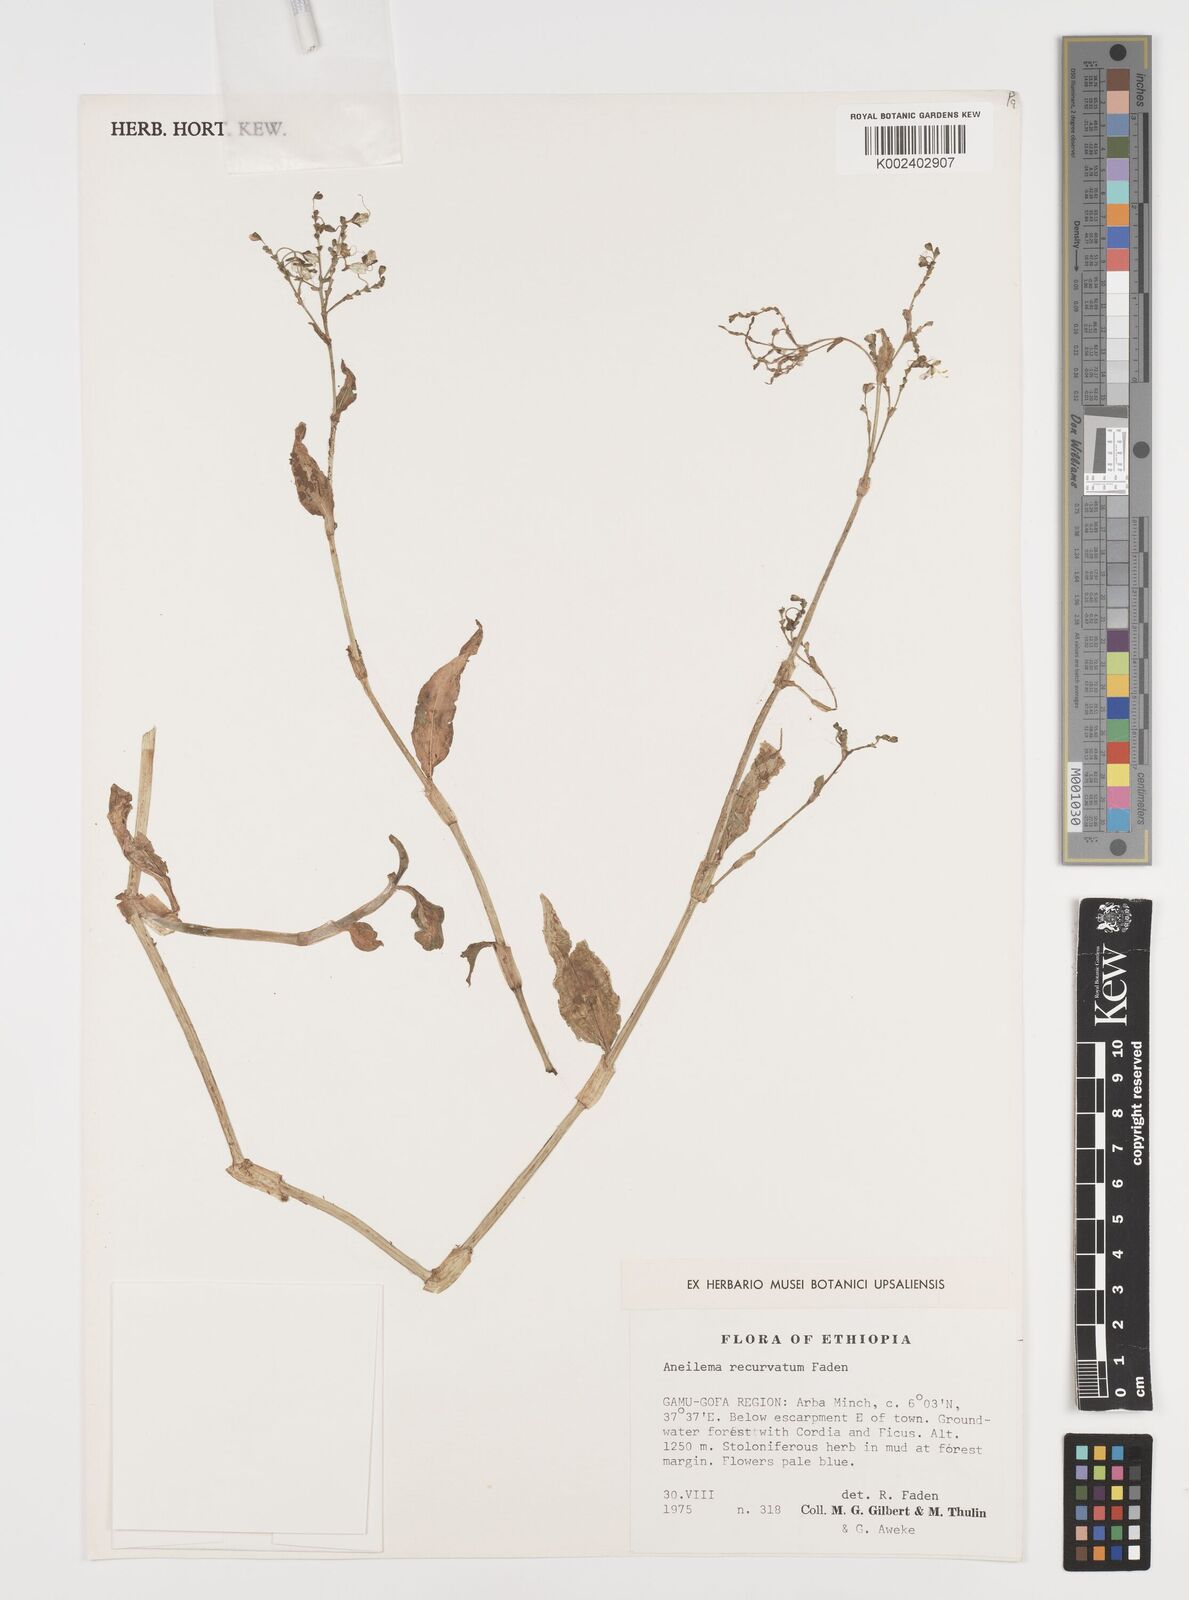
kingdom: Plantae
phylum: Tracheophyta
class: Liliopsida
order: Commelinales
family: Commelinaceae
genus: Aneilema
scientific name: Aneilema recurvatum
